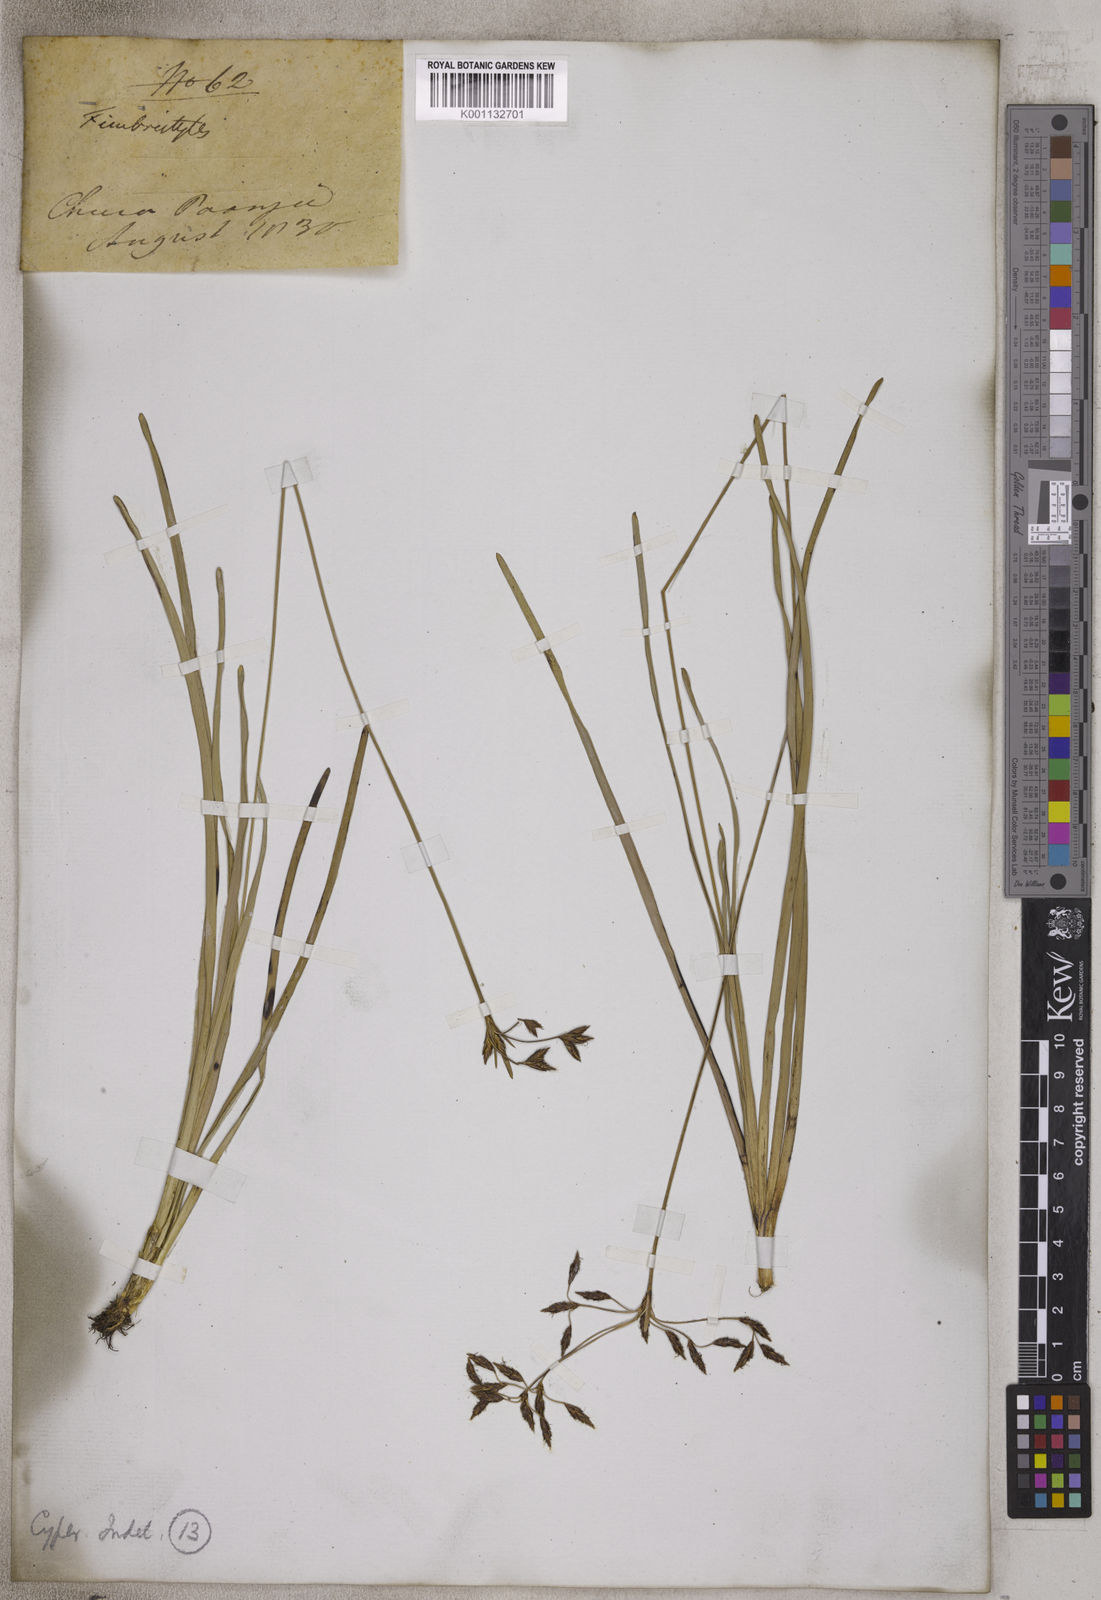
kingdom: Plantae
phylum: Tracheophyta
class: Liliopsida
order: Poales
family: Cyperaceae
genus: Fimbristylis
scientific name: Fimbristylis
